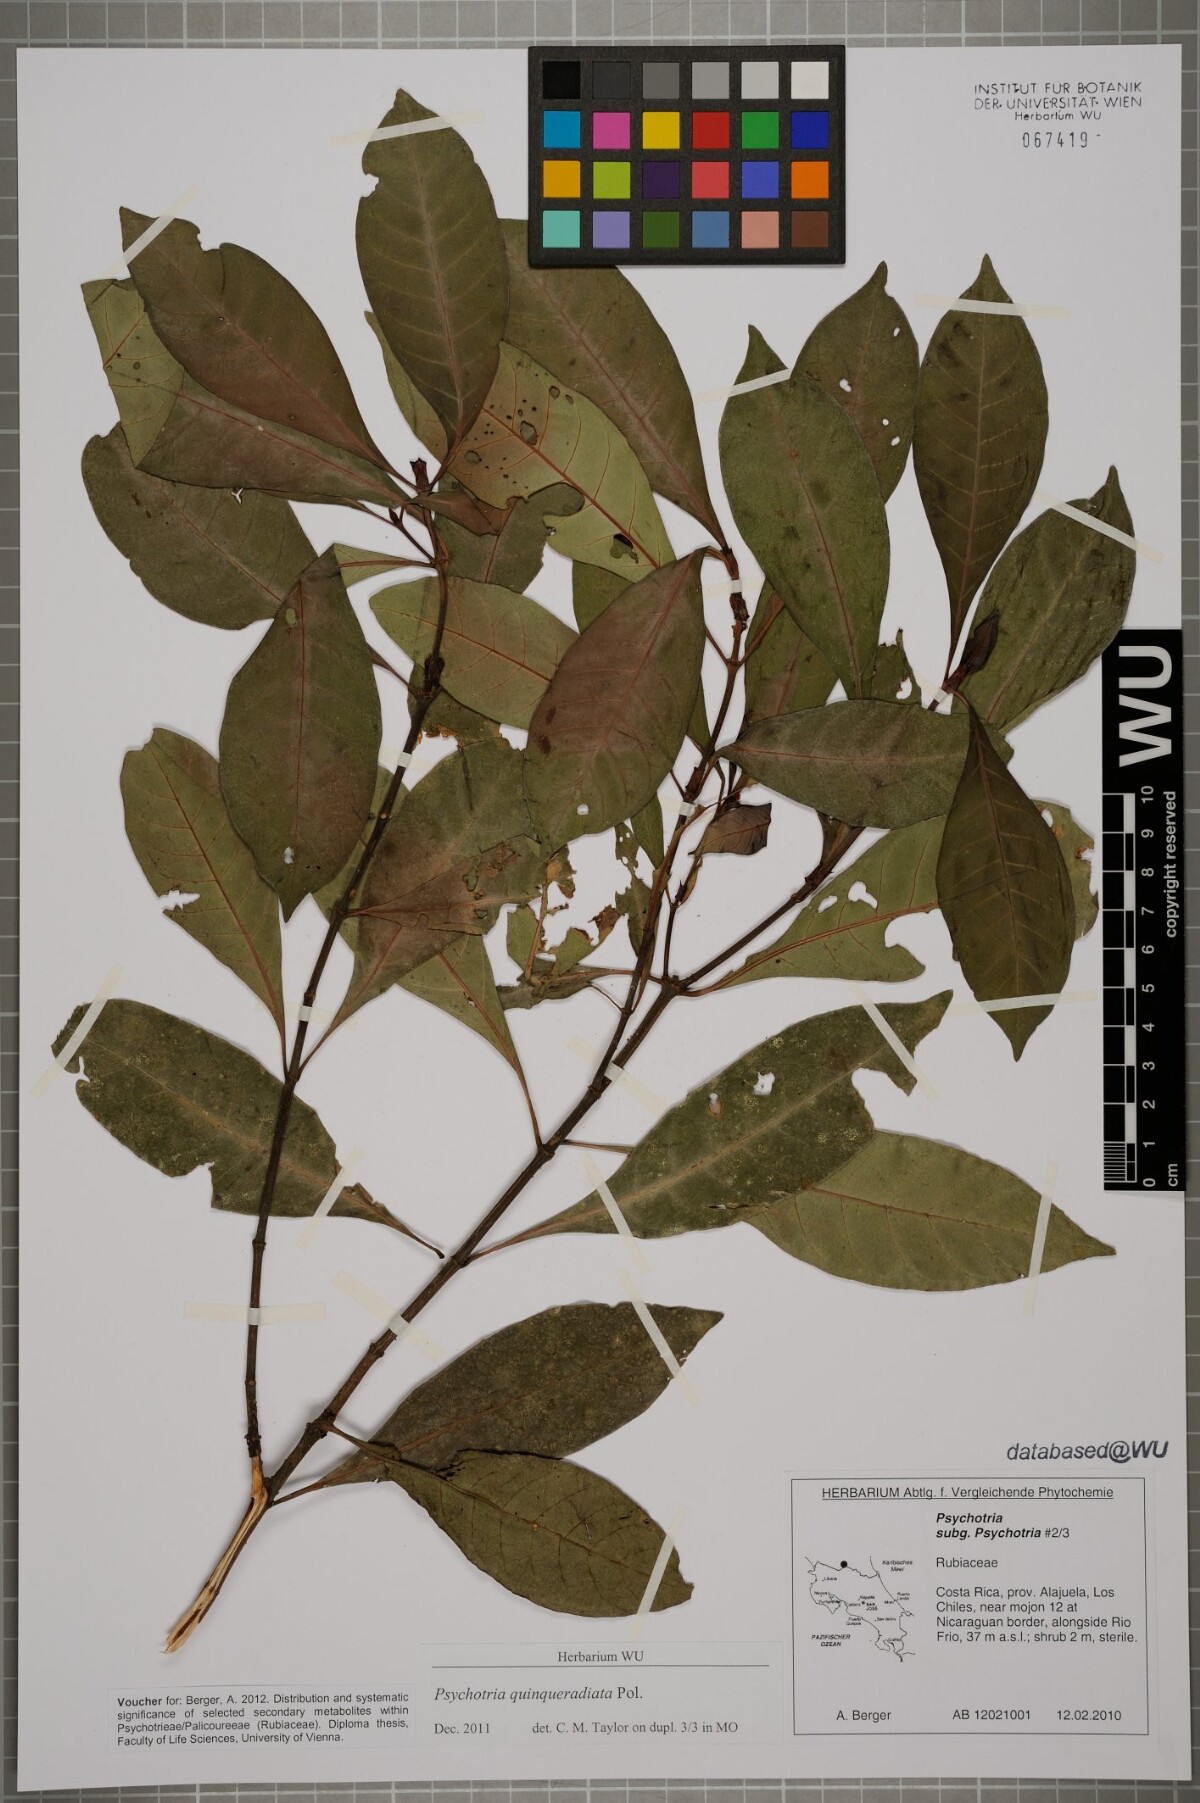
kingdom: Plantae
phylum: Tracheophyta
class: Magnoliopsida
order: Gentianales
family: Rubiaceae
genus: Psychotria
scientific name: Psychotria
